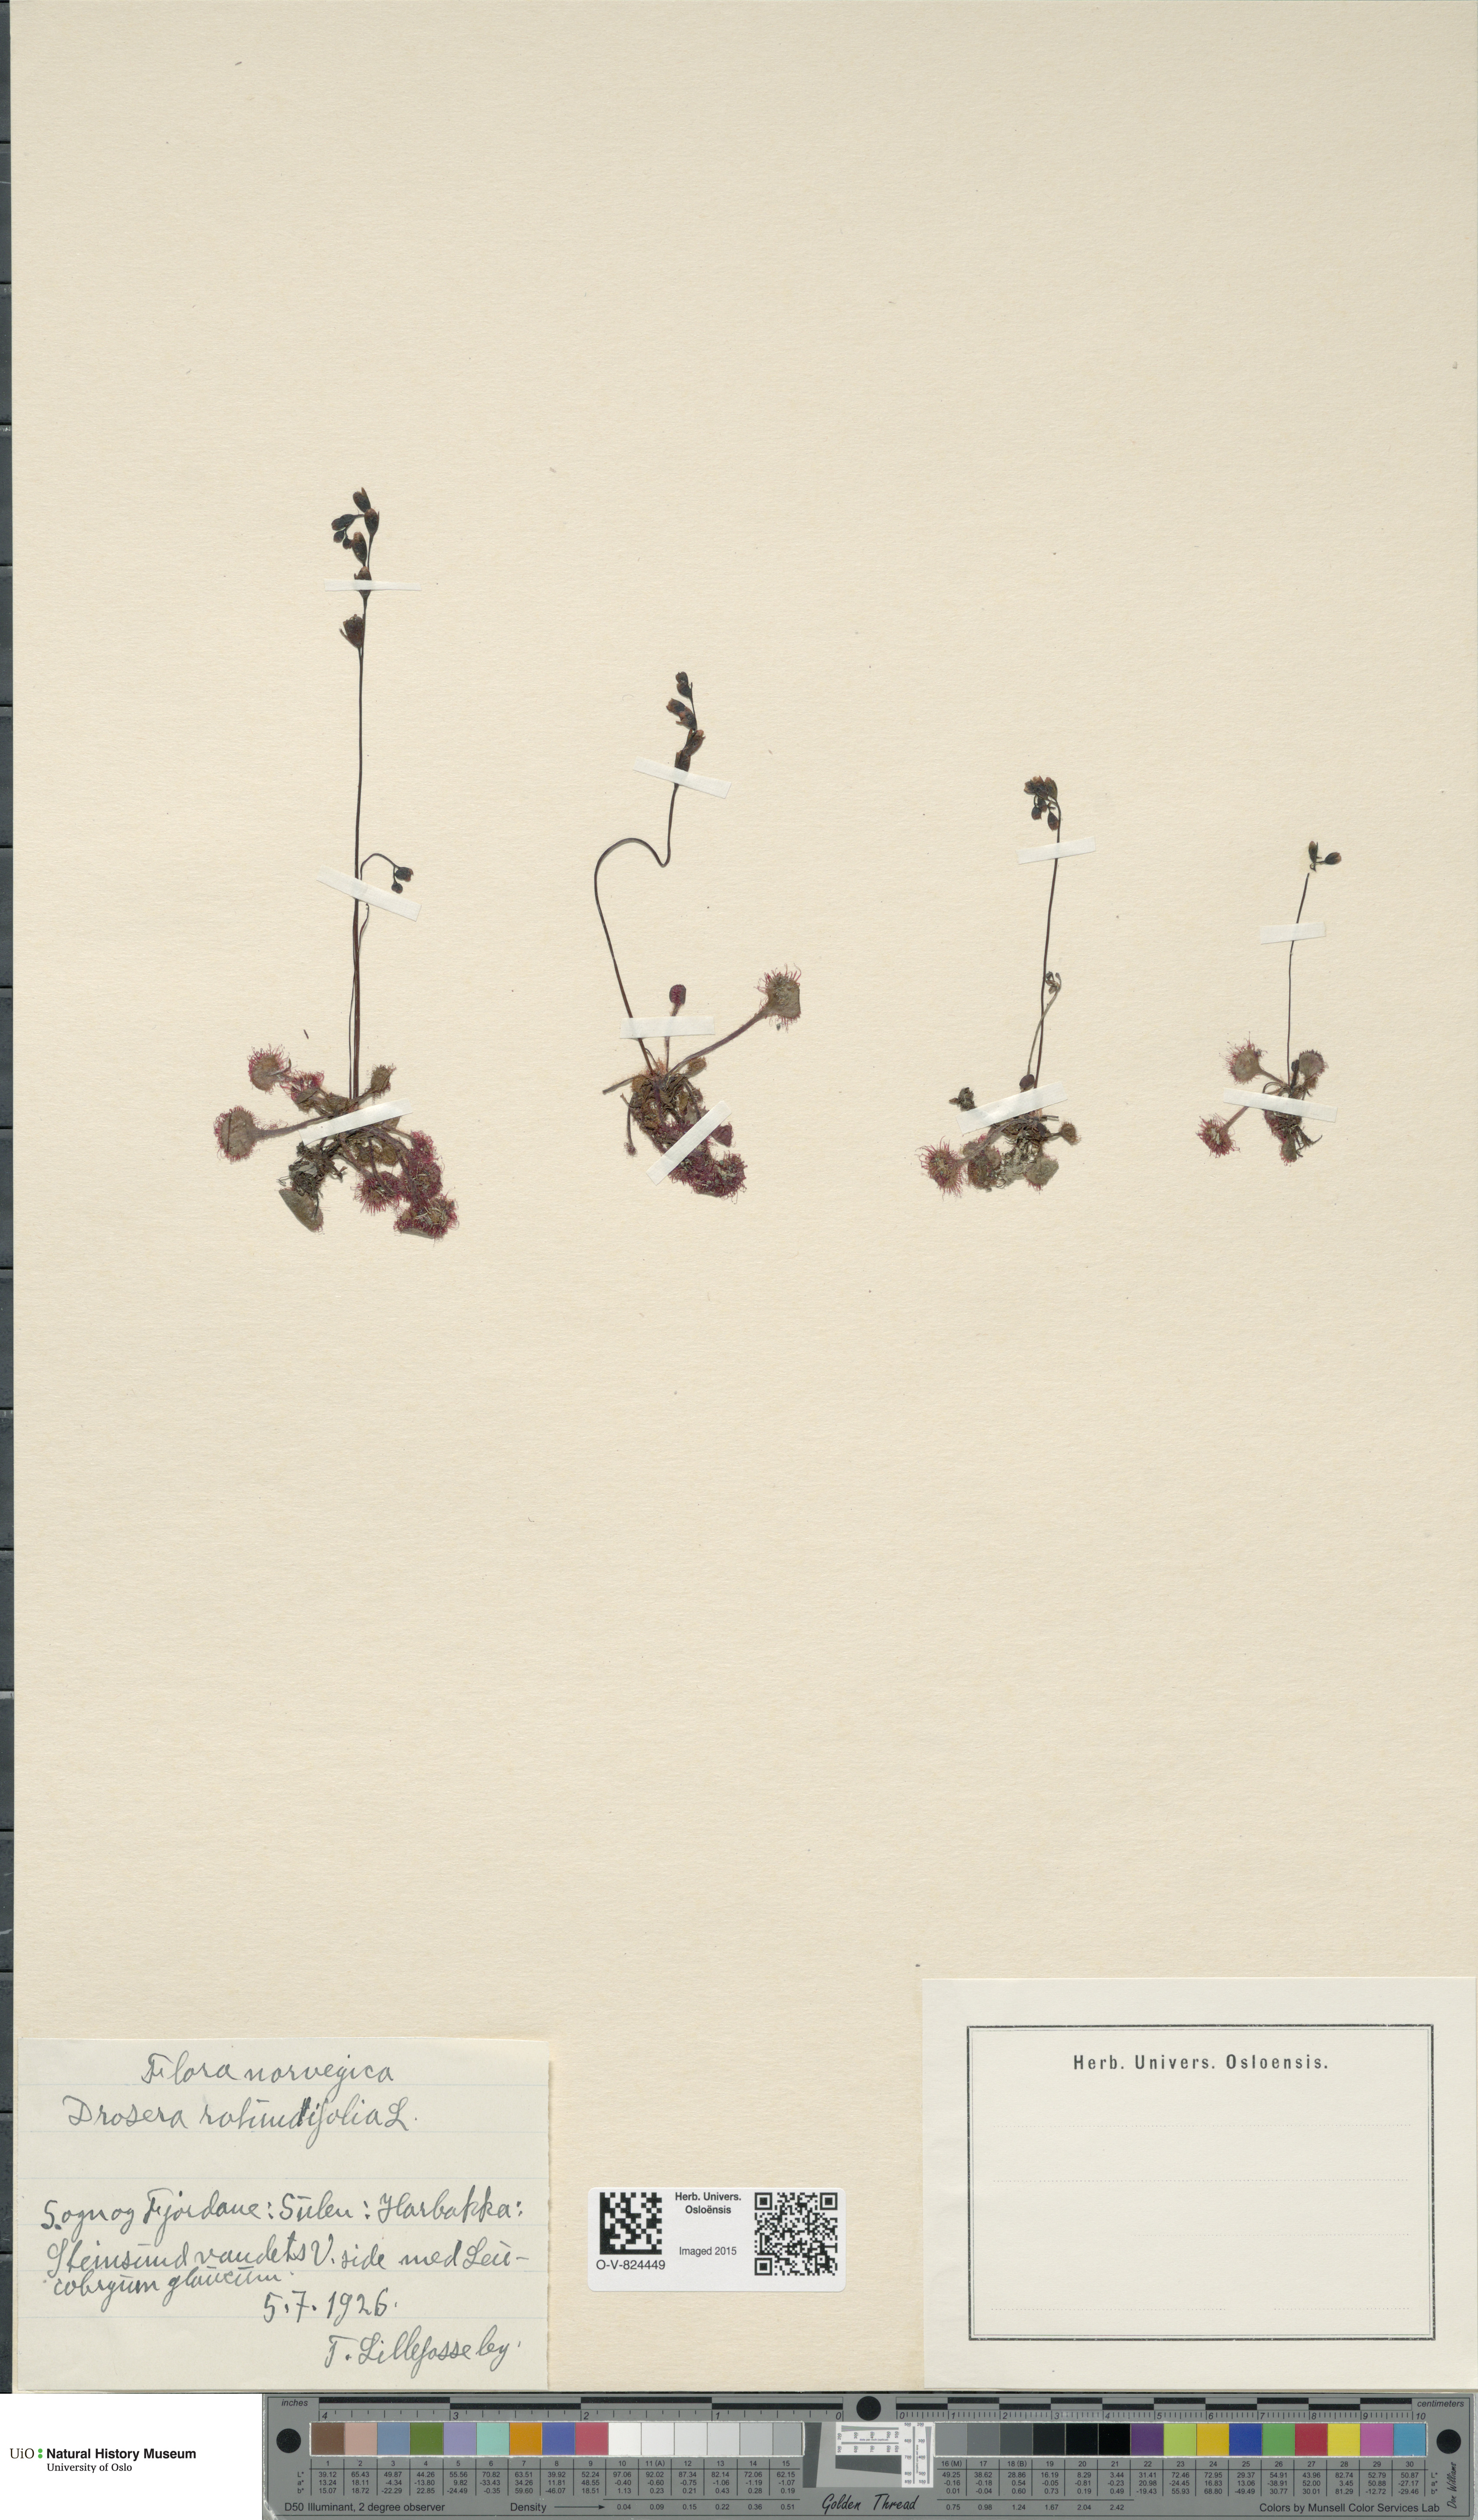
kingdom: Plantae
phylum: Tracheophyta
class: Magnoliopsida
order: Caryophyllales
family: Droseraceae
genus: Drosera
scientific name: Drosera rotundifolia
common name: Round-leaved sundew
